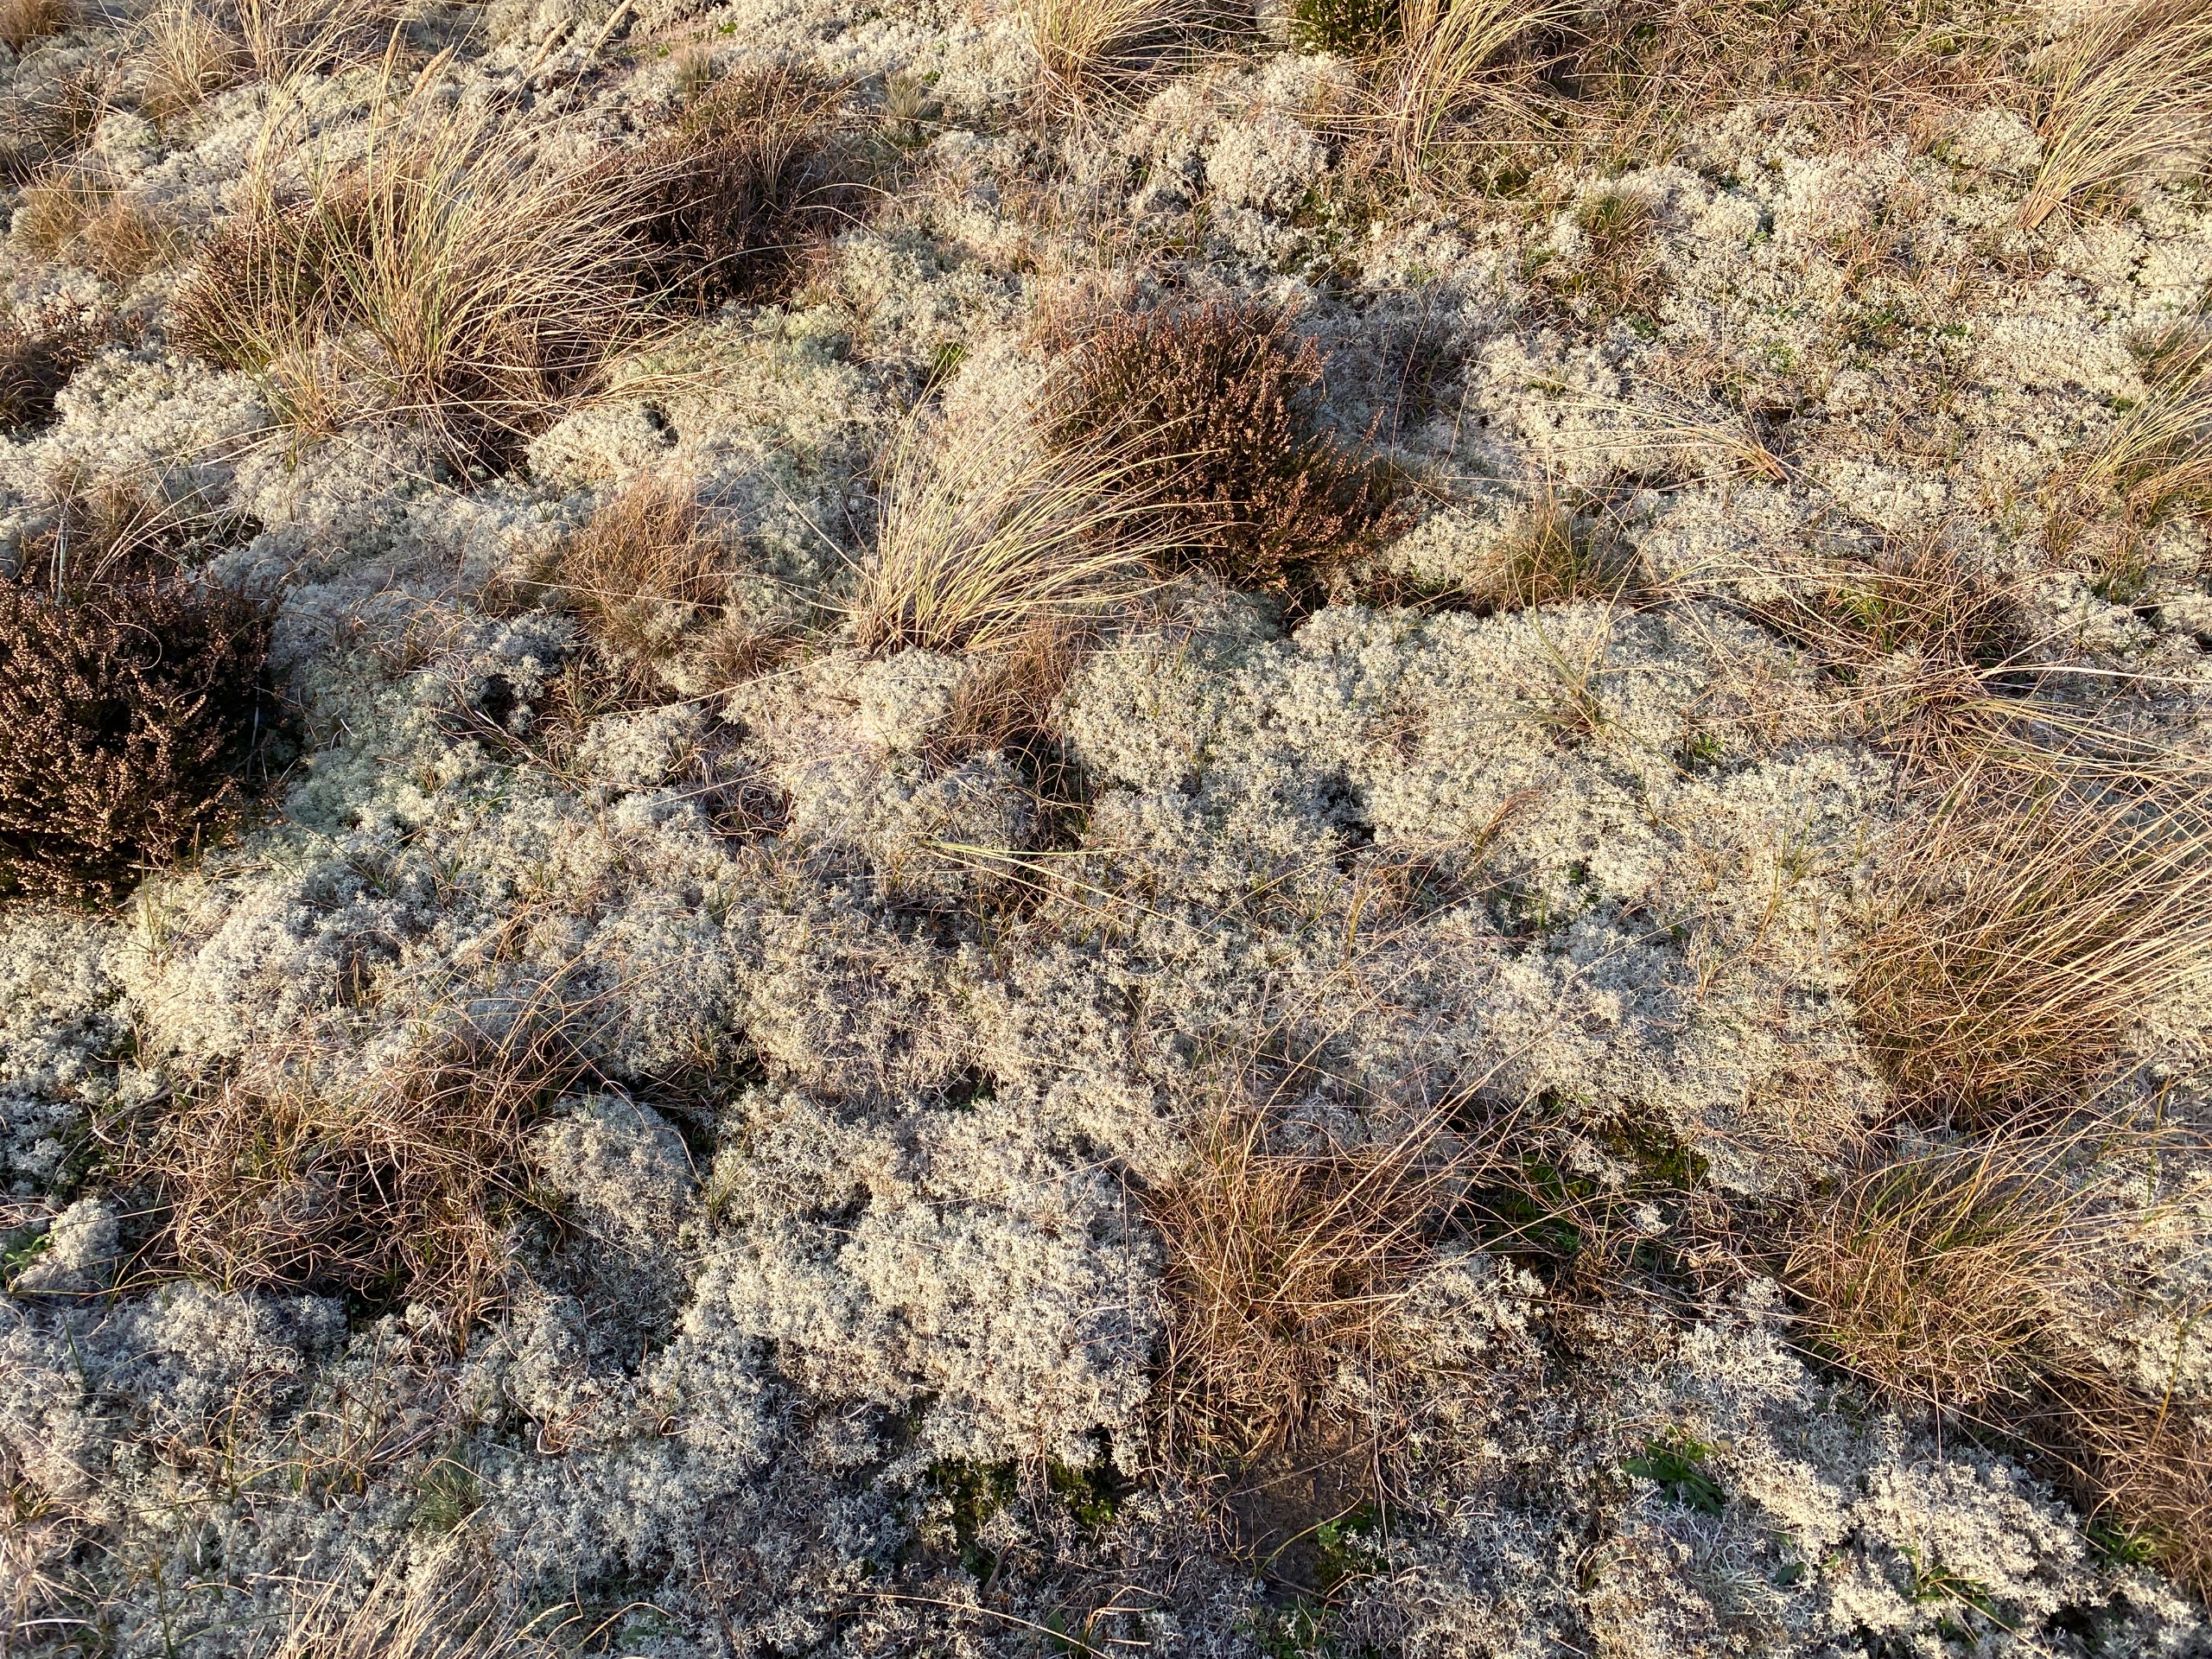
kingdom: Plantae
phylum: Tracheophyta
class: Magnoliopsida
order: Ericales
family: Ericaceae
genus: Calluna
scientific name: Calluna vulgaris
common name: Hedelyng
